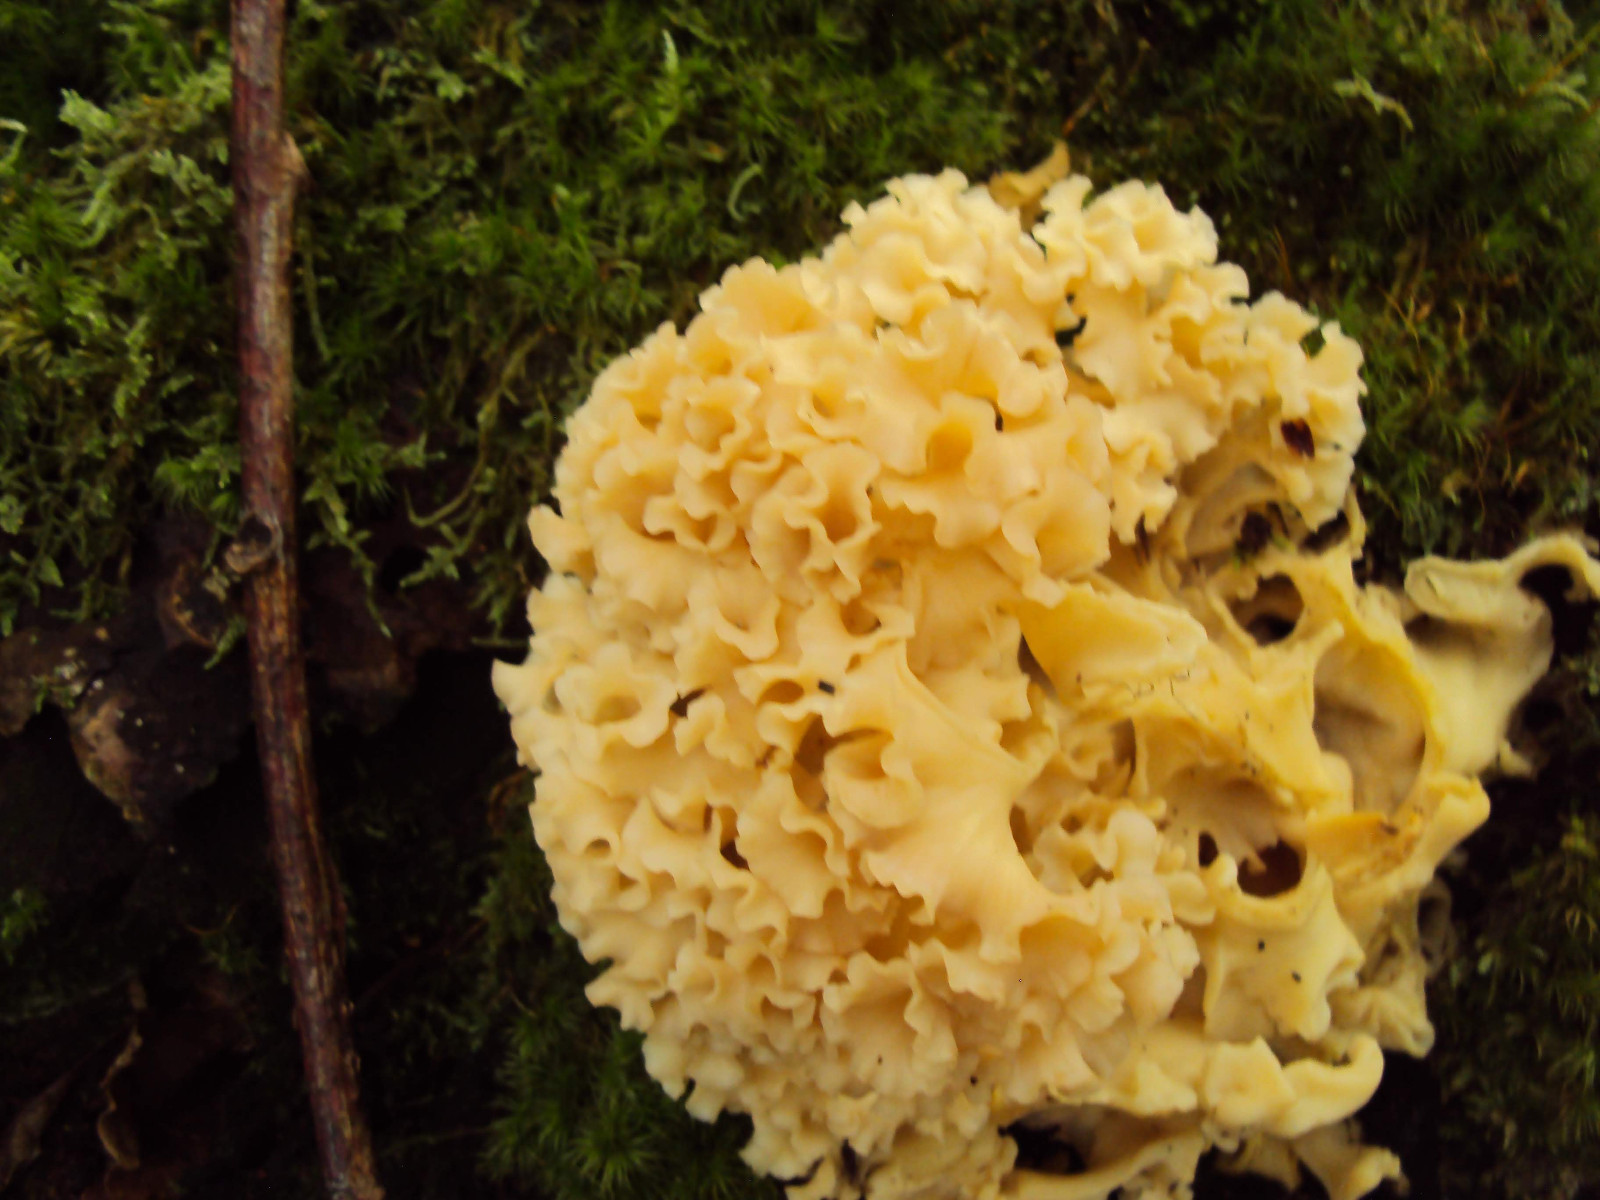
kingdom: Fungi
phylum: Basidiomycota
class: Agaricomycetes
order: Polyporales
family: Sparassidaceae
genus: Sparassis
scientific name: Sparassis crispa
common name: kruset blomkålssvamp
